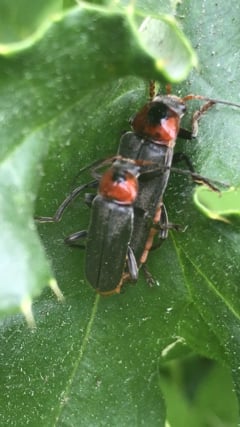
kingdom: Animalia
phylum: Arthropoda
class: Insecta
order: Coleoptera
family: Cantharidae
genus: Cantharis
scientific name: Cantharis fusca
